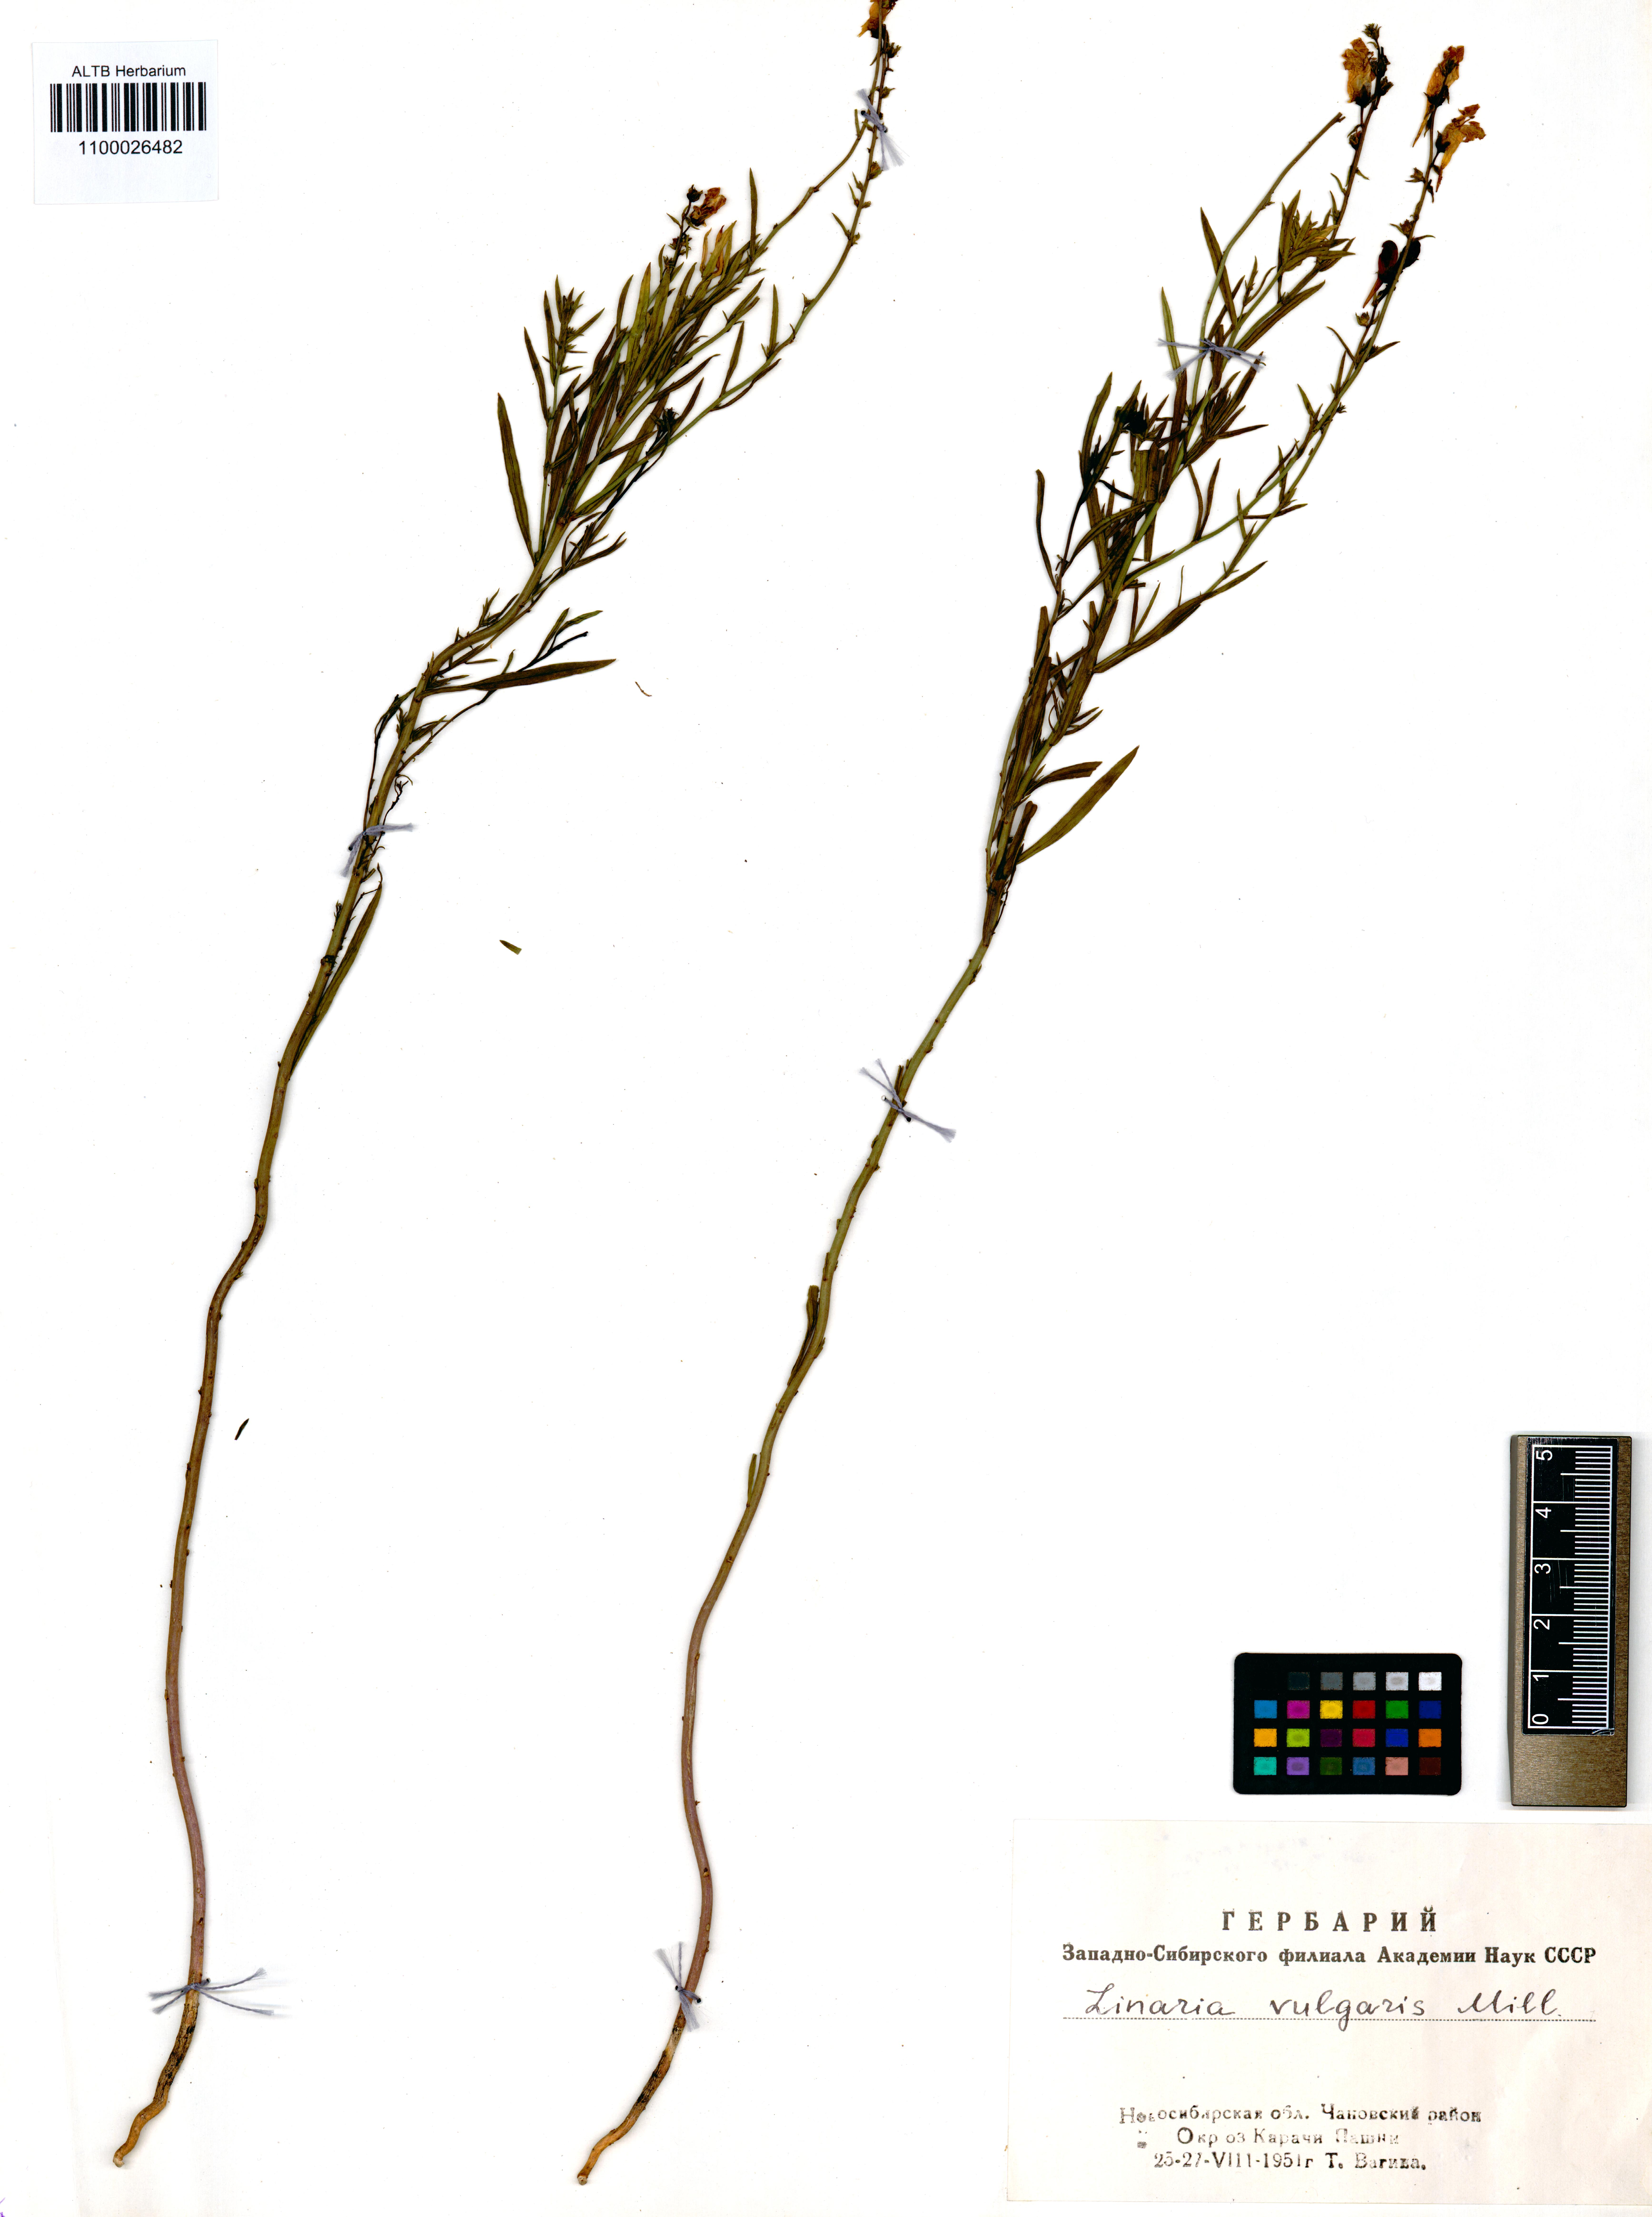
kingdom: Plantae
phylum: Tracheophyta
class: Magnoliopsida
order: Lamiales
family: Plantaginaceae
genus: Linaria
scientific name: Linaria vulgaris
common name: Butter and eggs
